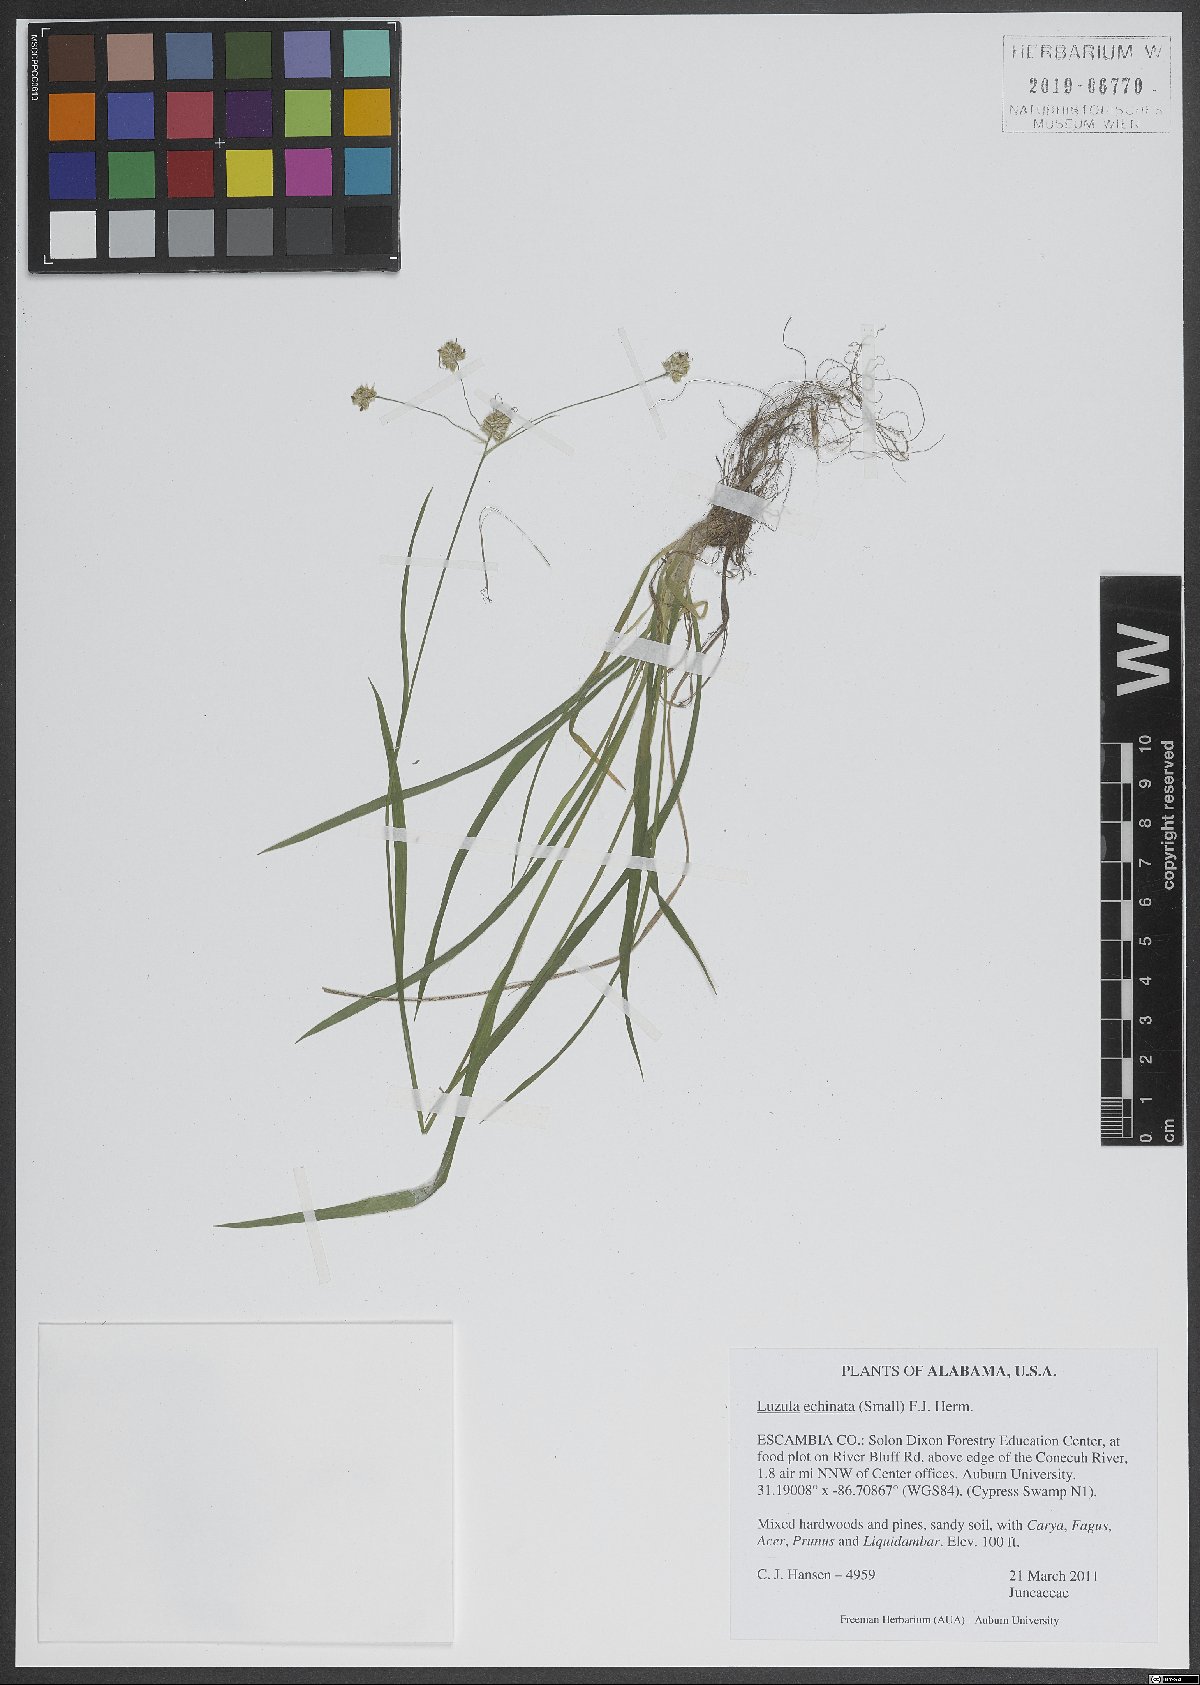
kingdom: Plantae
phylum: Tracheophyta
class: Liliopsida
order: Poales
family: Juncaceae
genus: Luzula
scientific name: Luzula echinata
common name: Hedgehog woodrush
